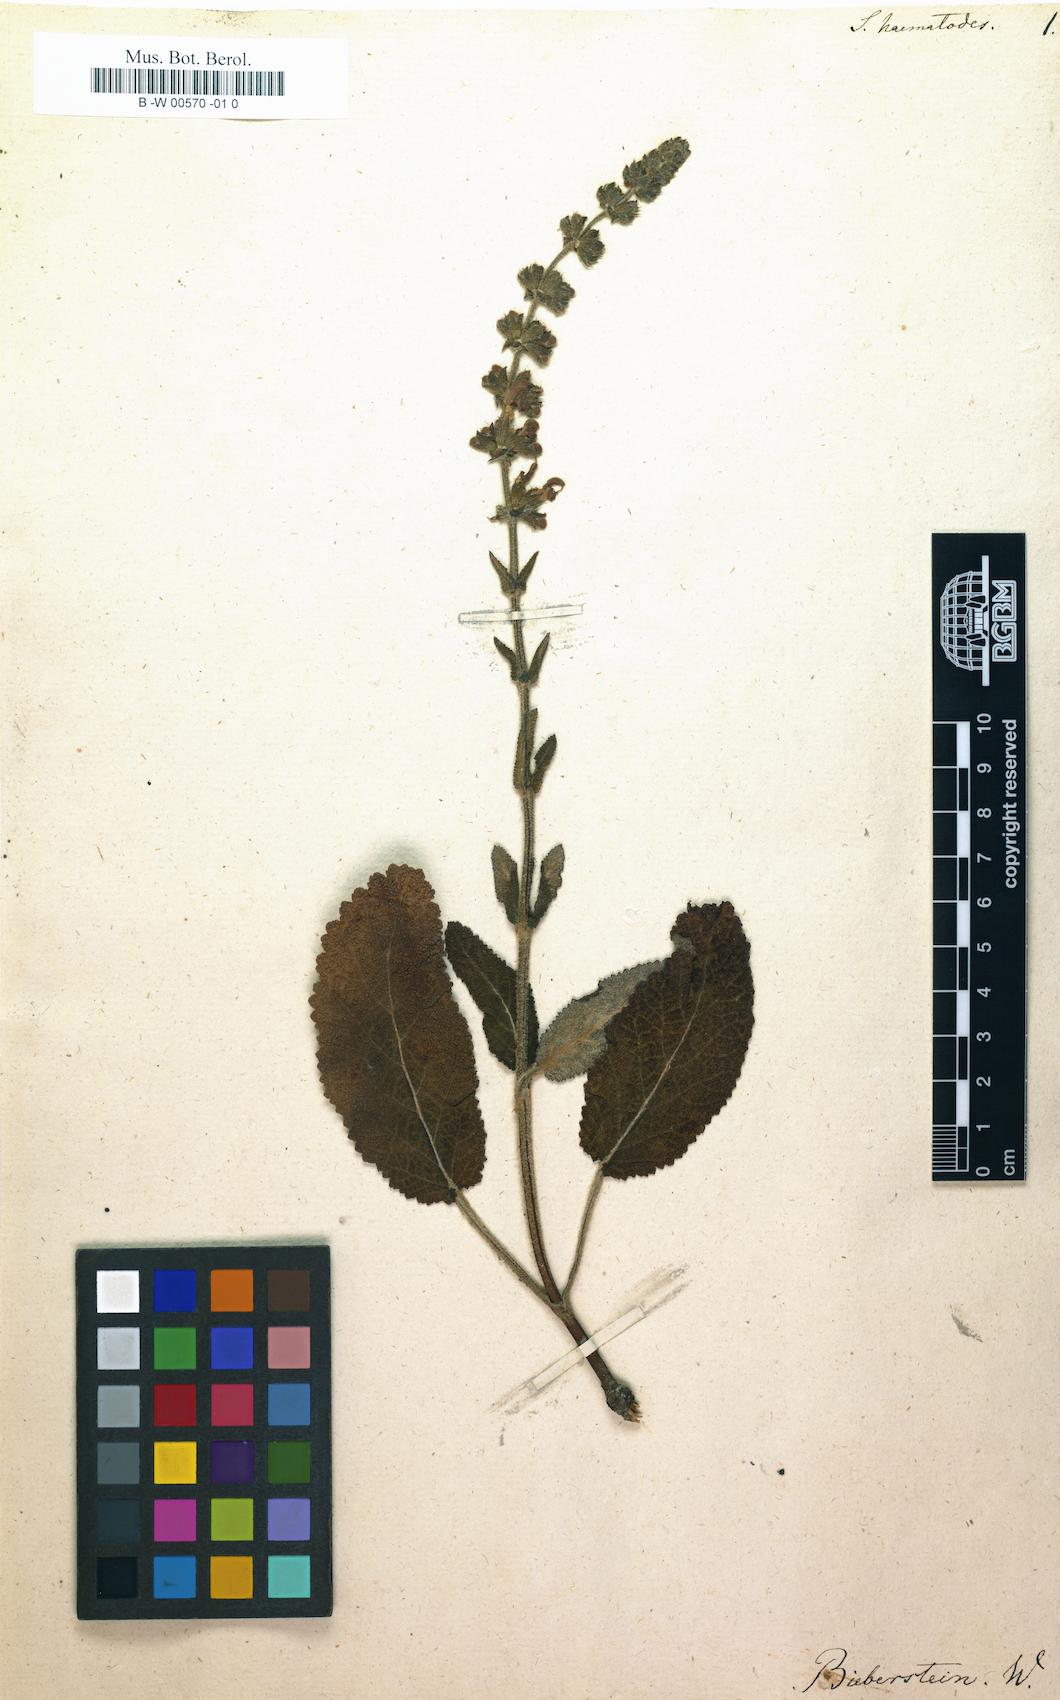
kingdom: Plantae
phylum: Tracheophyta
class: Magnoliopsida
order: Lamiales
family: Lamiaceae
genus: Salvia
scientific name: Salvia
